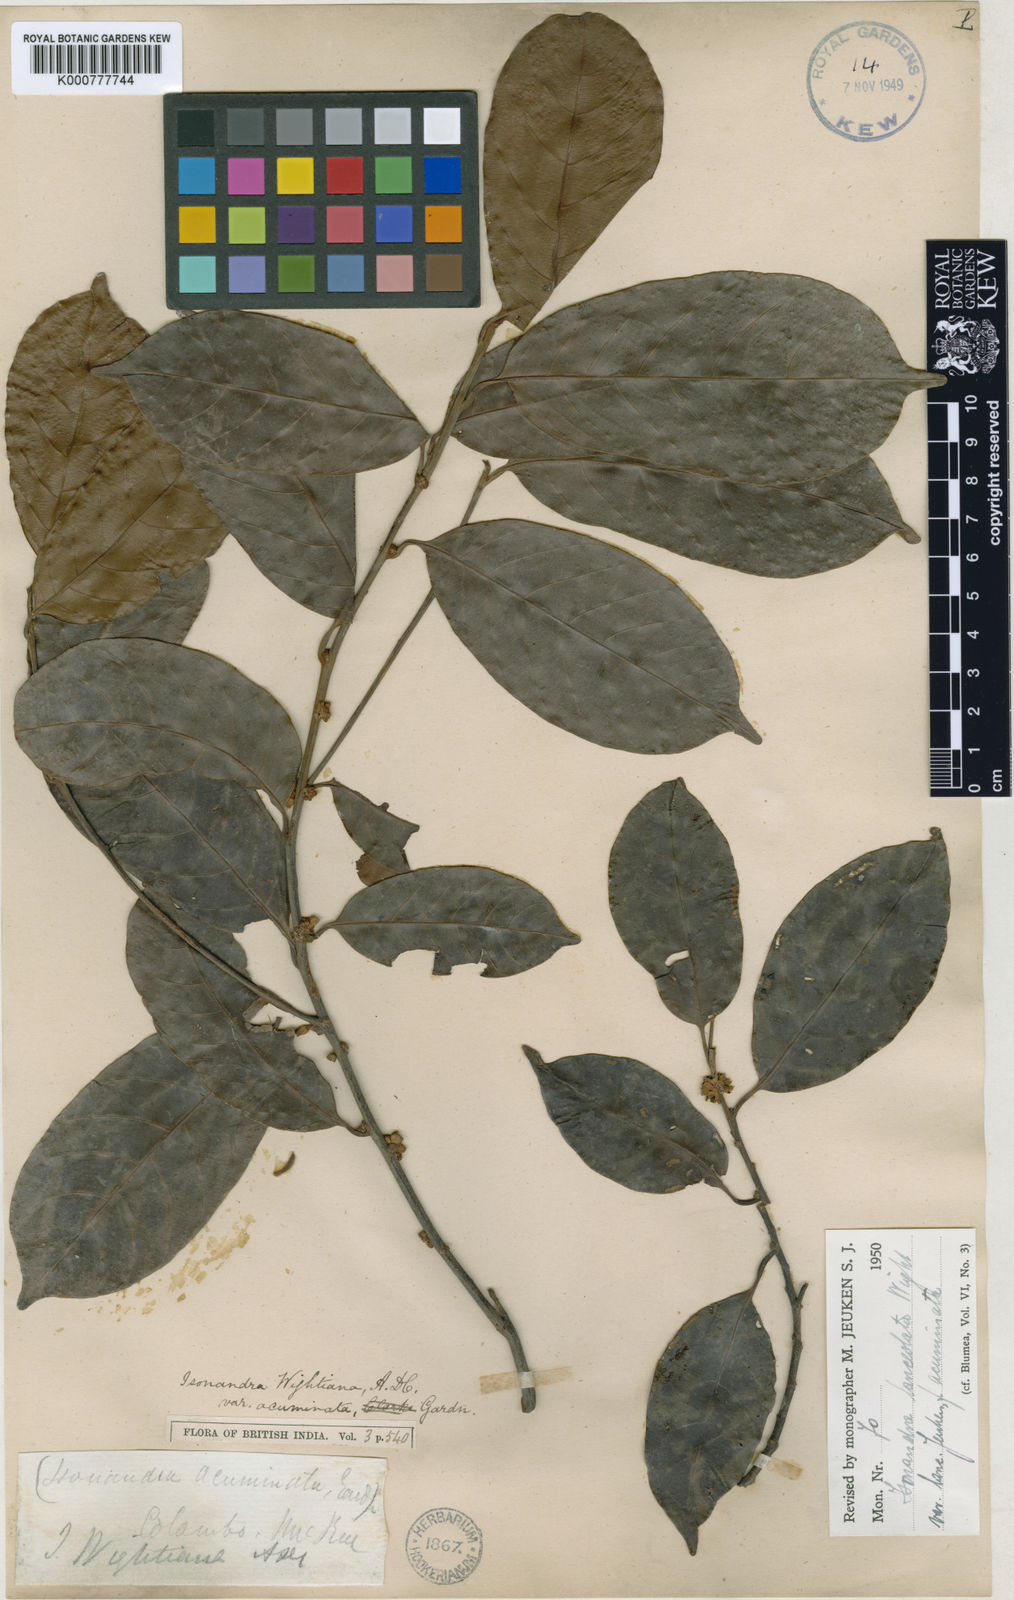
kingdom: Plantae
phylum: Tracheophyta
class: Magnoliopsida
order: Ericales
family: Sapotaceae
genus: Isonandra
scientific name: Isonandra lanceolata
